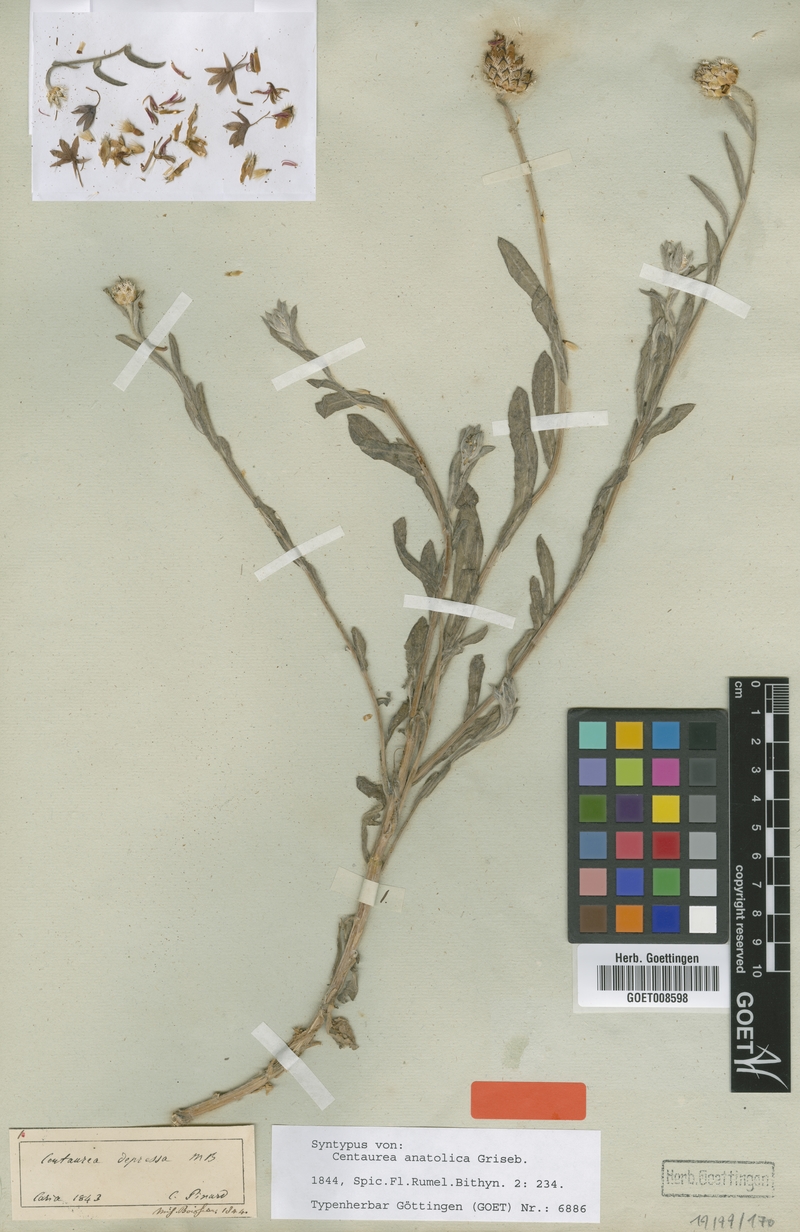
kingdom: Plantae
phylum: Tracheophyta
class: Magnoliopsida
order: Asterales
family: Asteraceae
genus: Centaurea
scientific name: Centaurea depressa
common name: Iranian knapweed
